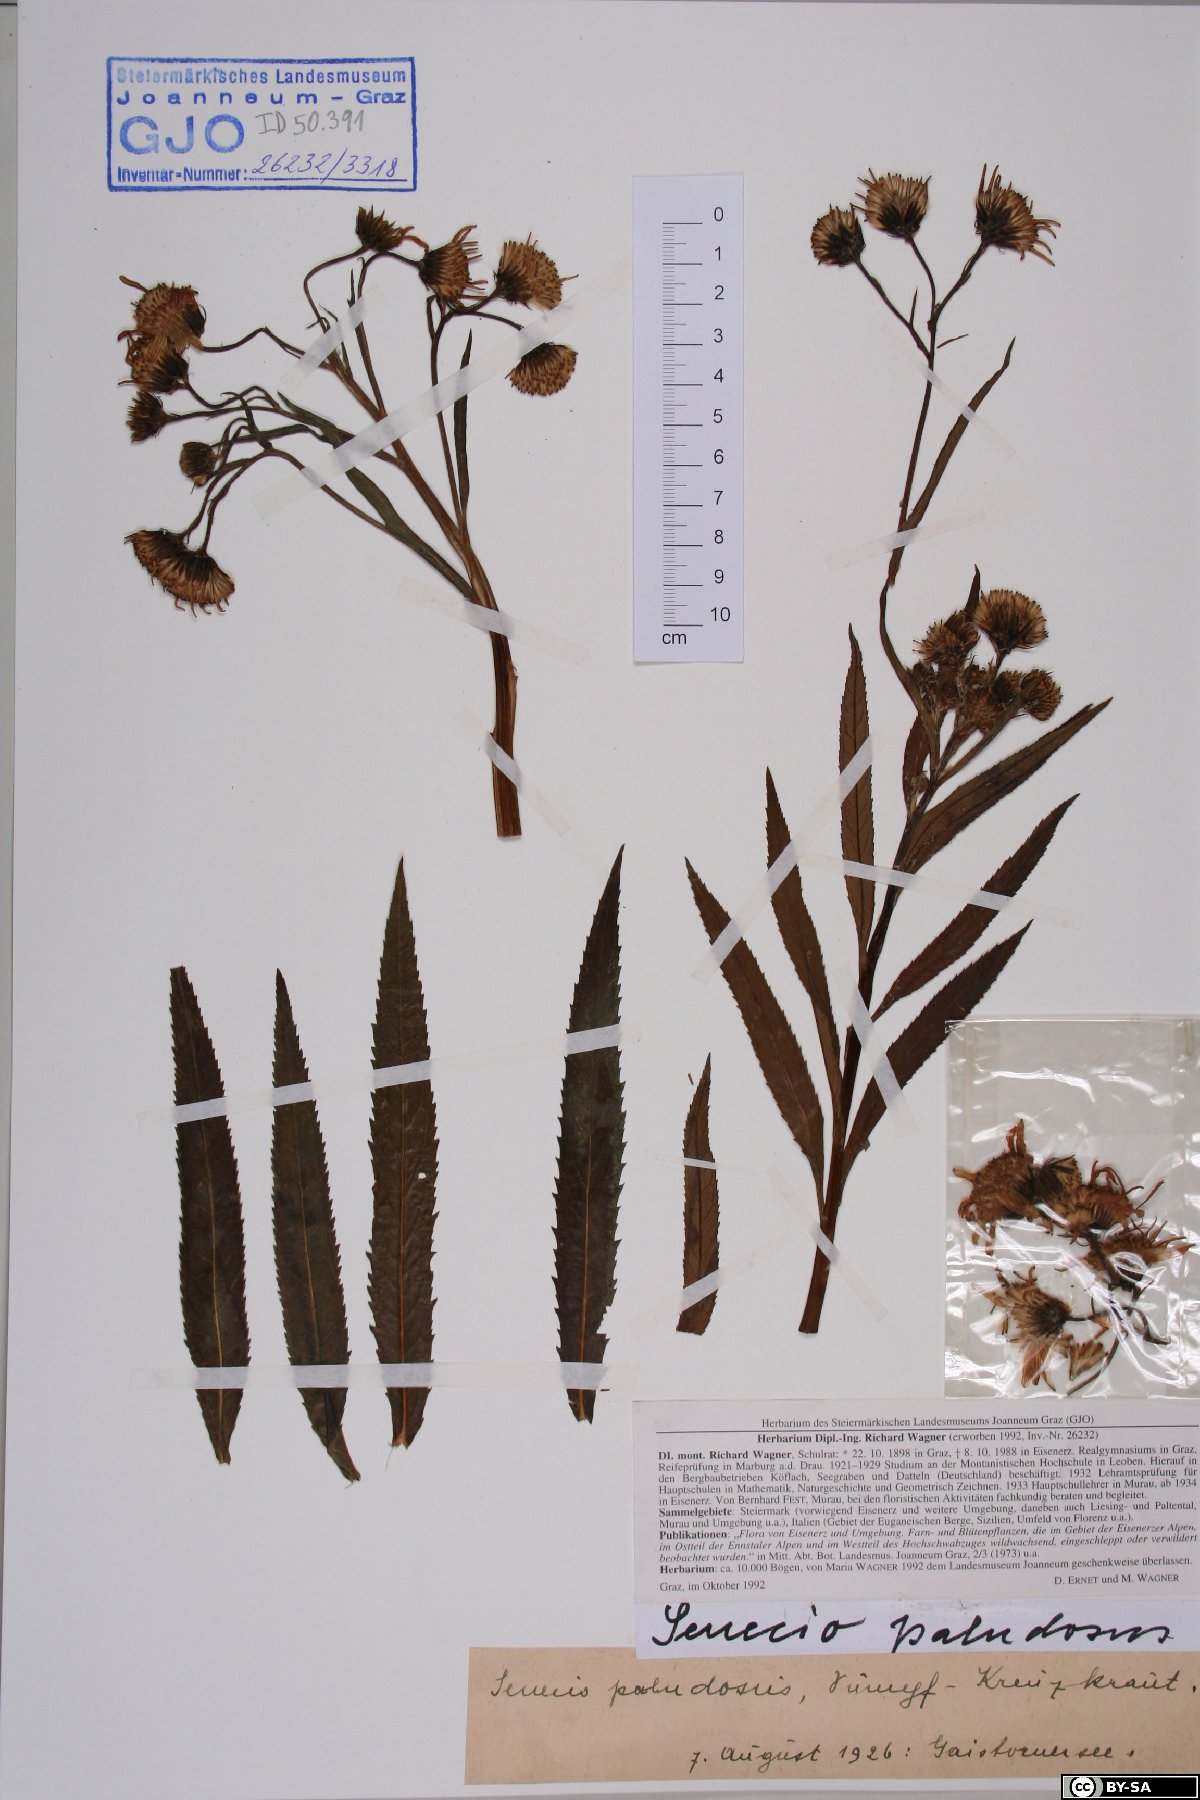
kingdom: Plantae
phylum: Tracheophyta
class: Magnoliopsida
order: Asterales
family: Asteraceae
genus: Jacobaea
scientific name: Jacobaea paludosa
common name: Fen ragwort
